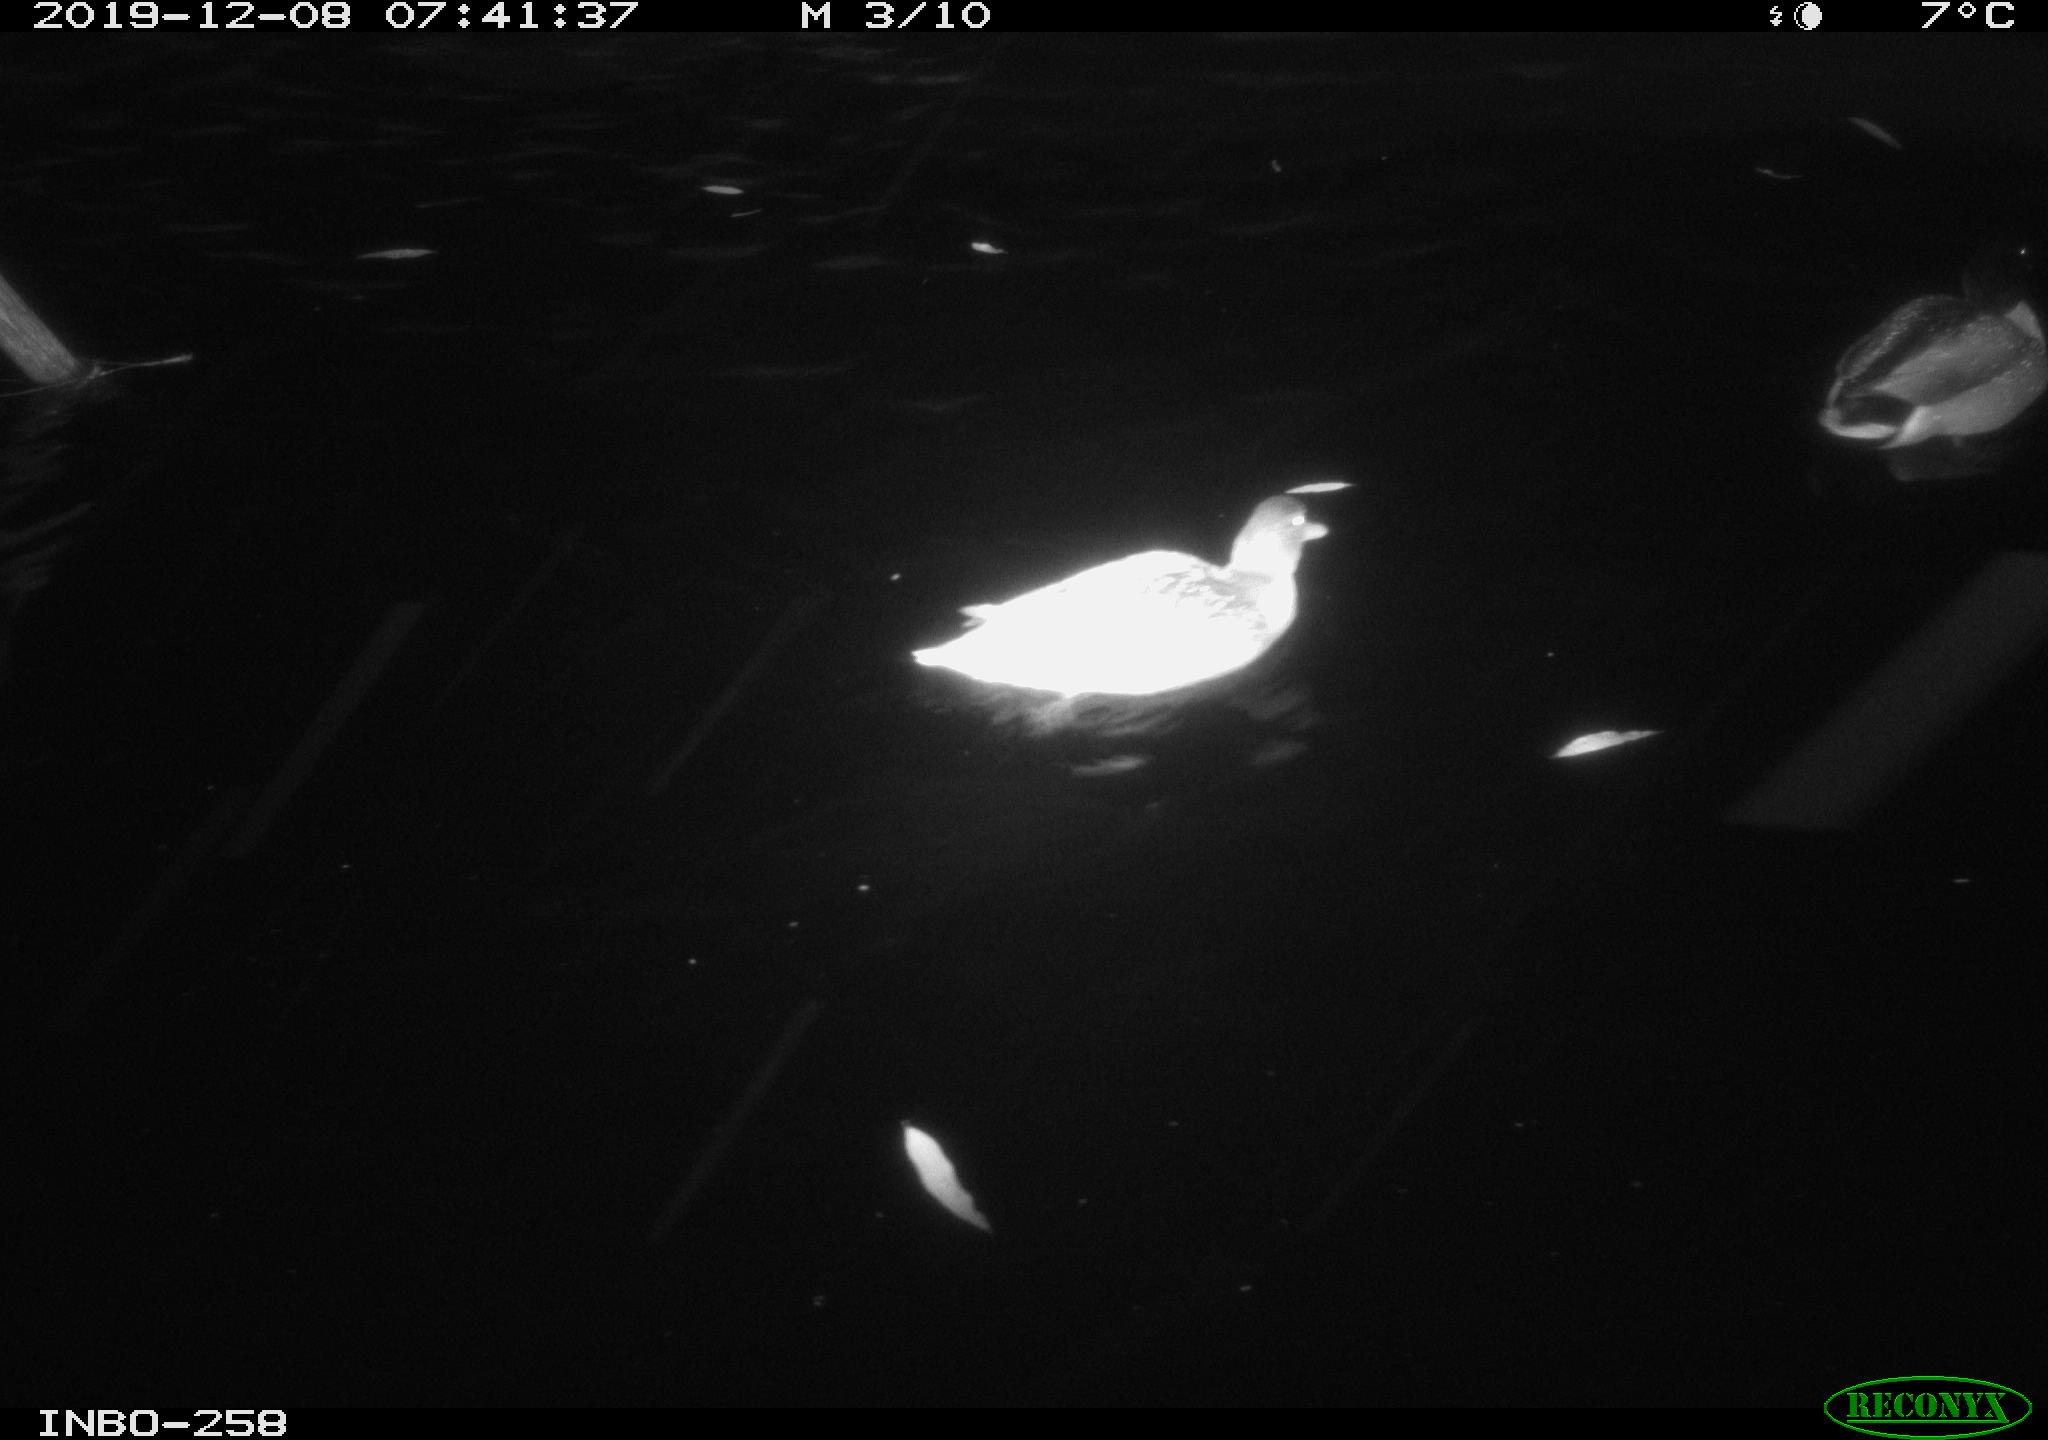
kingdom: Animalia
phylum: Chordata
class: Aves
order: Anseriformes
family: Anatidae
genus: Anas
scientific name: Anas platyrhynchos
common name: Mallard
